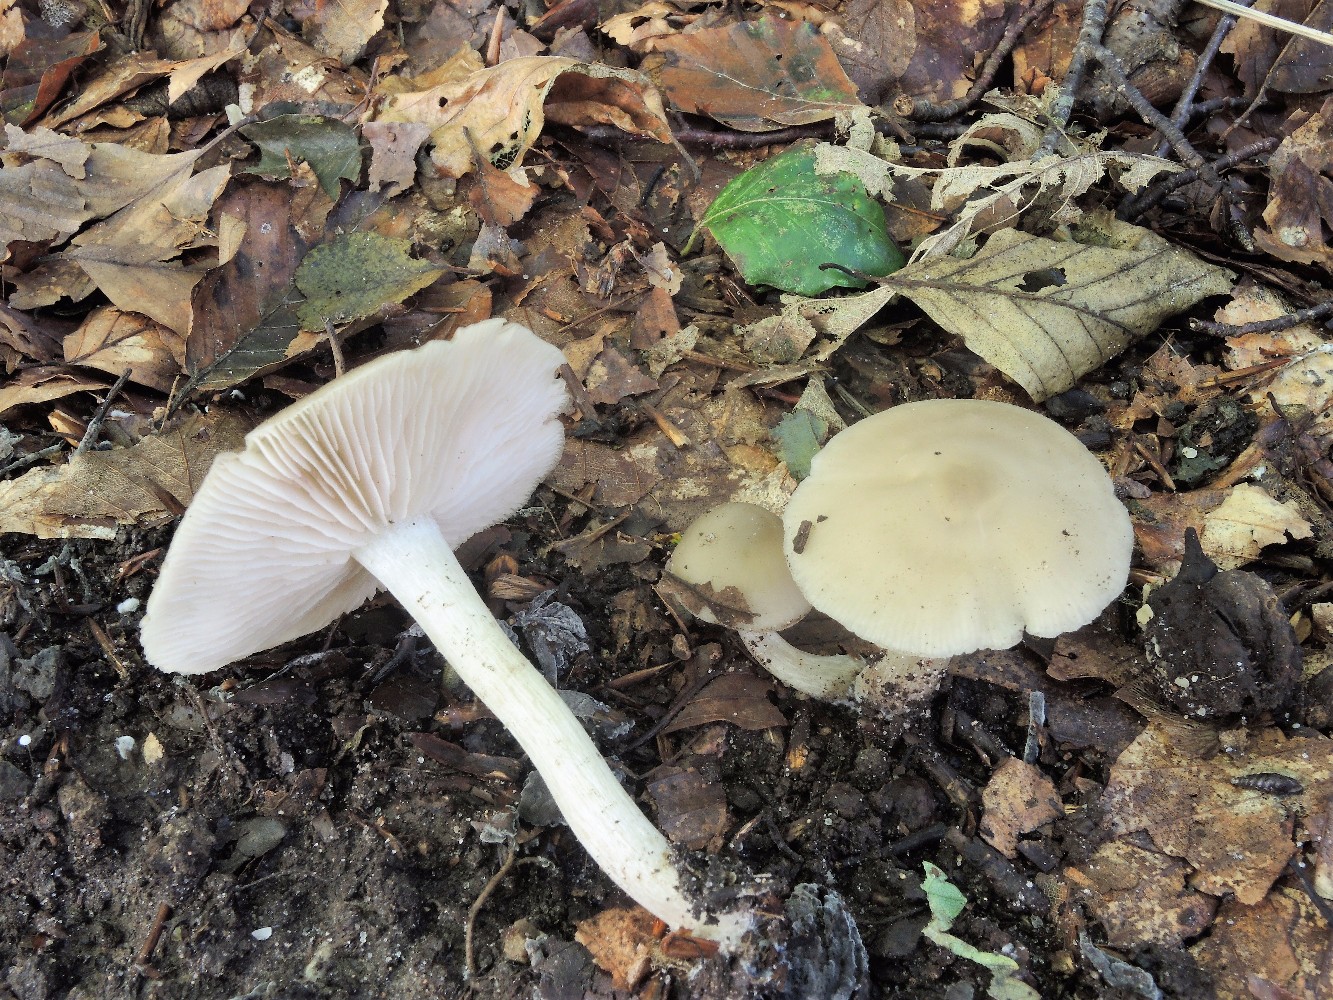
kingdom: Fungi
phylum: Basidiomycota
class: Agaricomycetes
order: Agaricales
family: Entolomataceae
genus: Entoloma
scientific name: Entoloma sericatum
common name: rank rødblad
